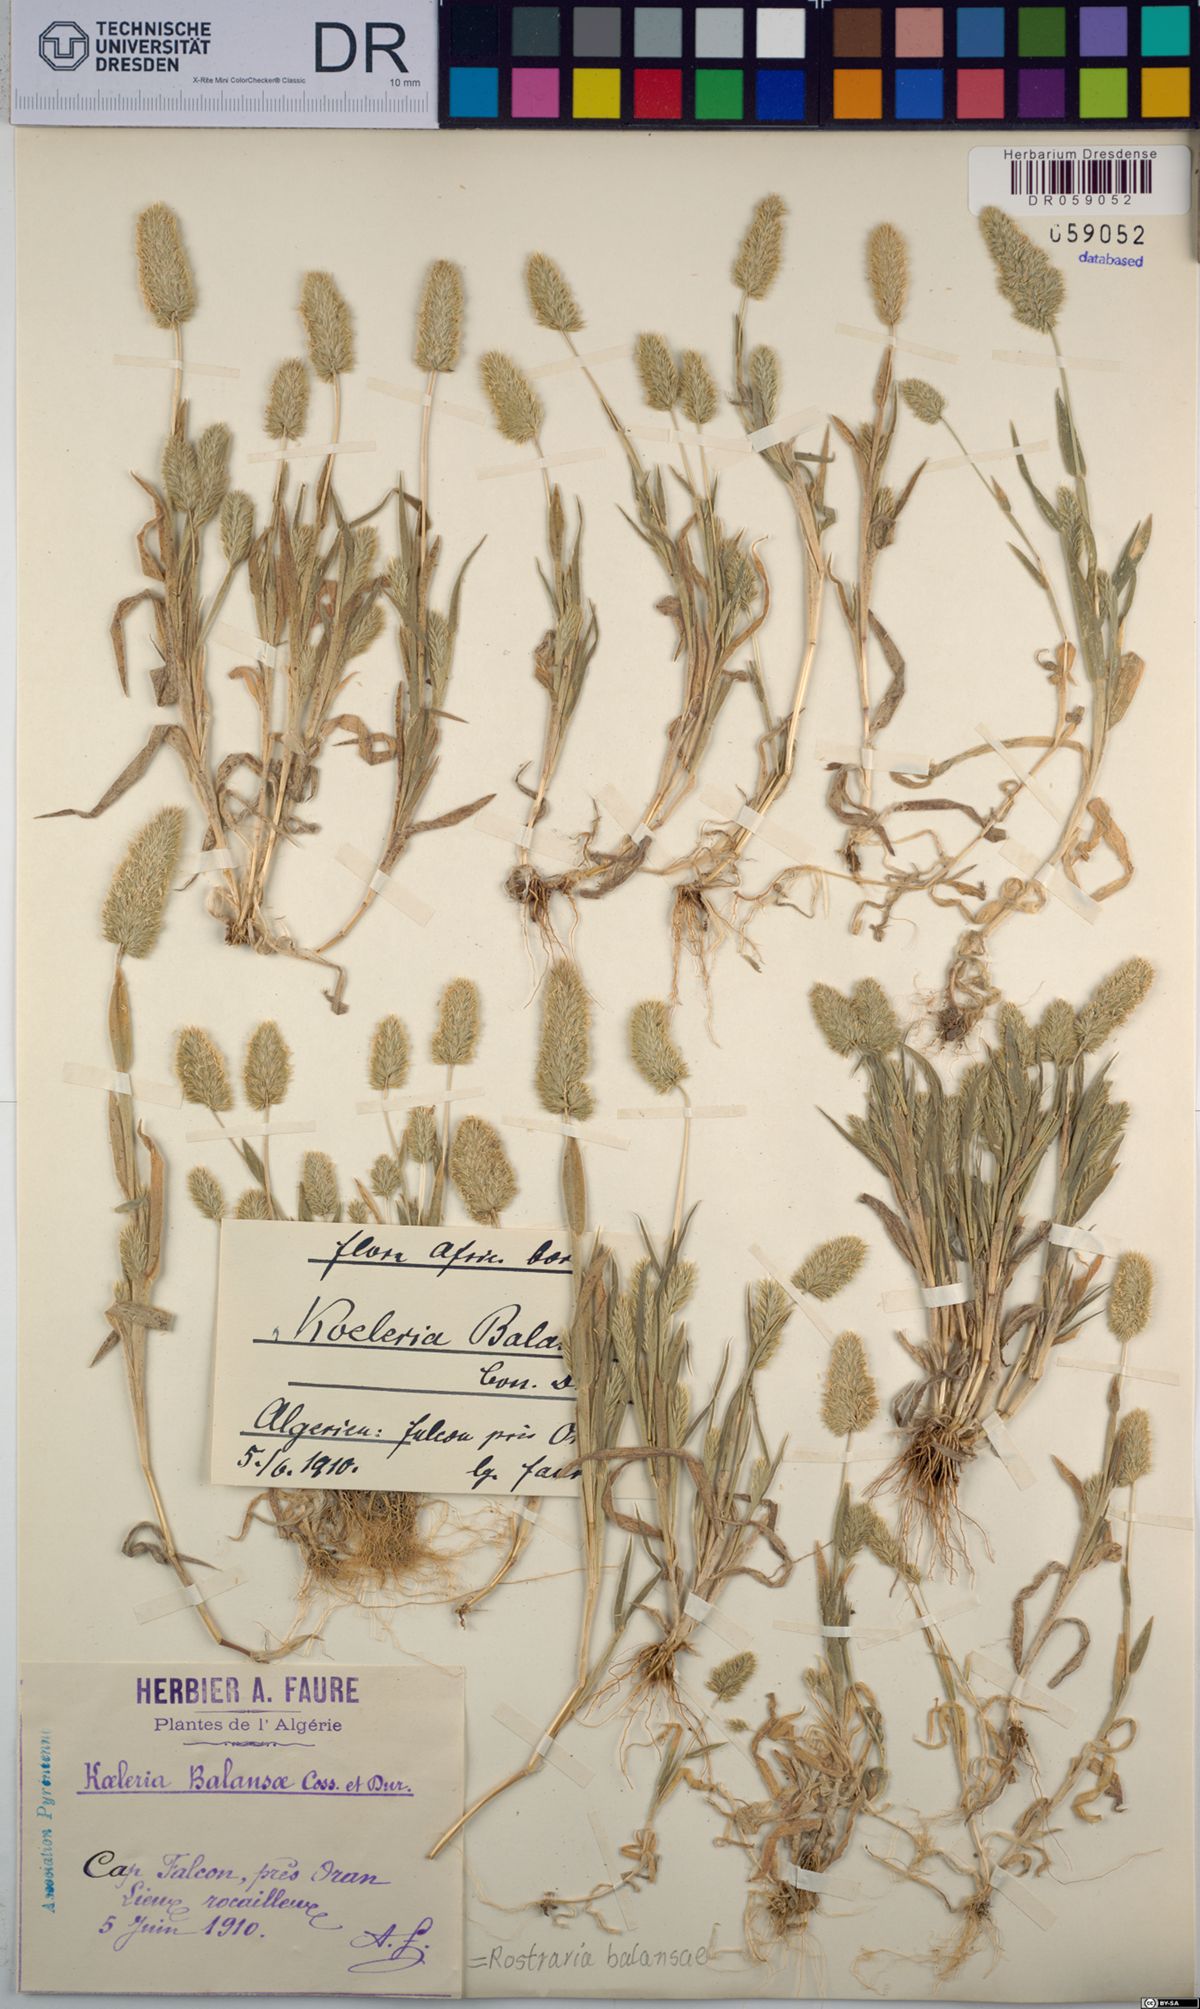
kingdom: Plantae
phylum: Tracheophyta
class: Liliopsida
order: Poales
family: Poaceae
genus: Rostraria
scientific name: Rostraria balansae
